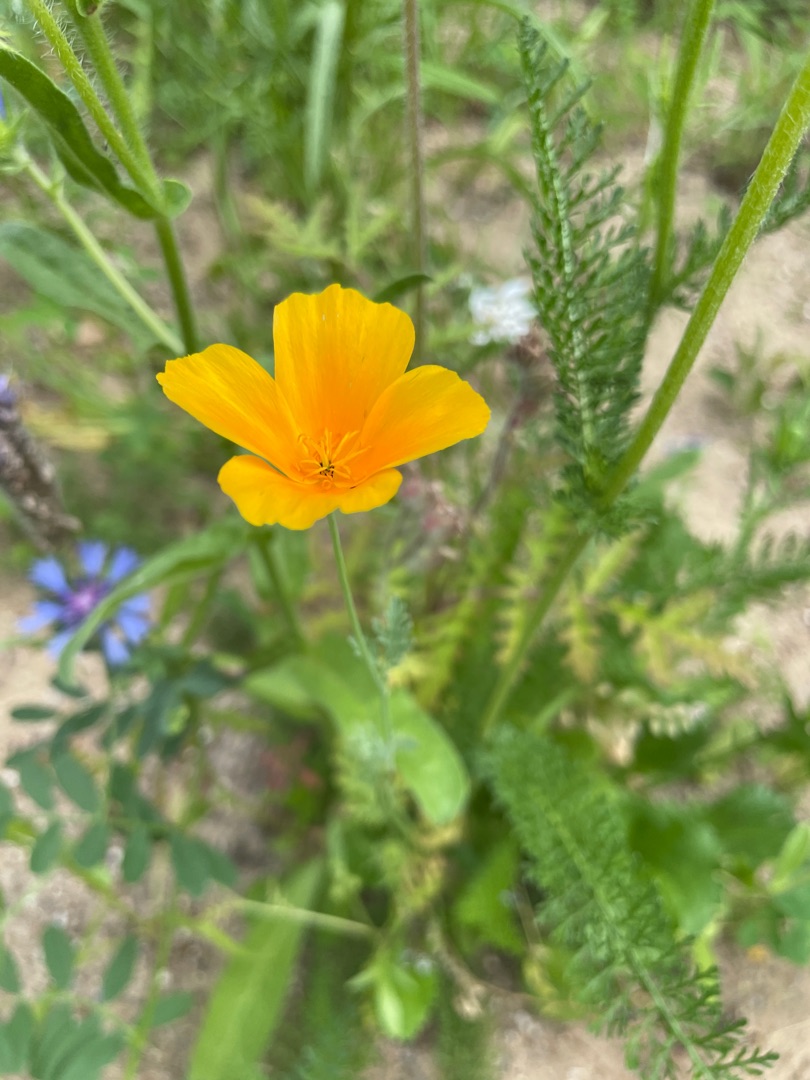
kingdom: Plantae
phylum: Tracheophyta
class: Magnoliopsida
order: Ranunculales
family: Papaveraceae
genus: Eschscholzia
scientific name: Eschscholzia californica
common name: Guldvalmue
